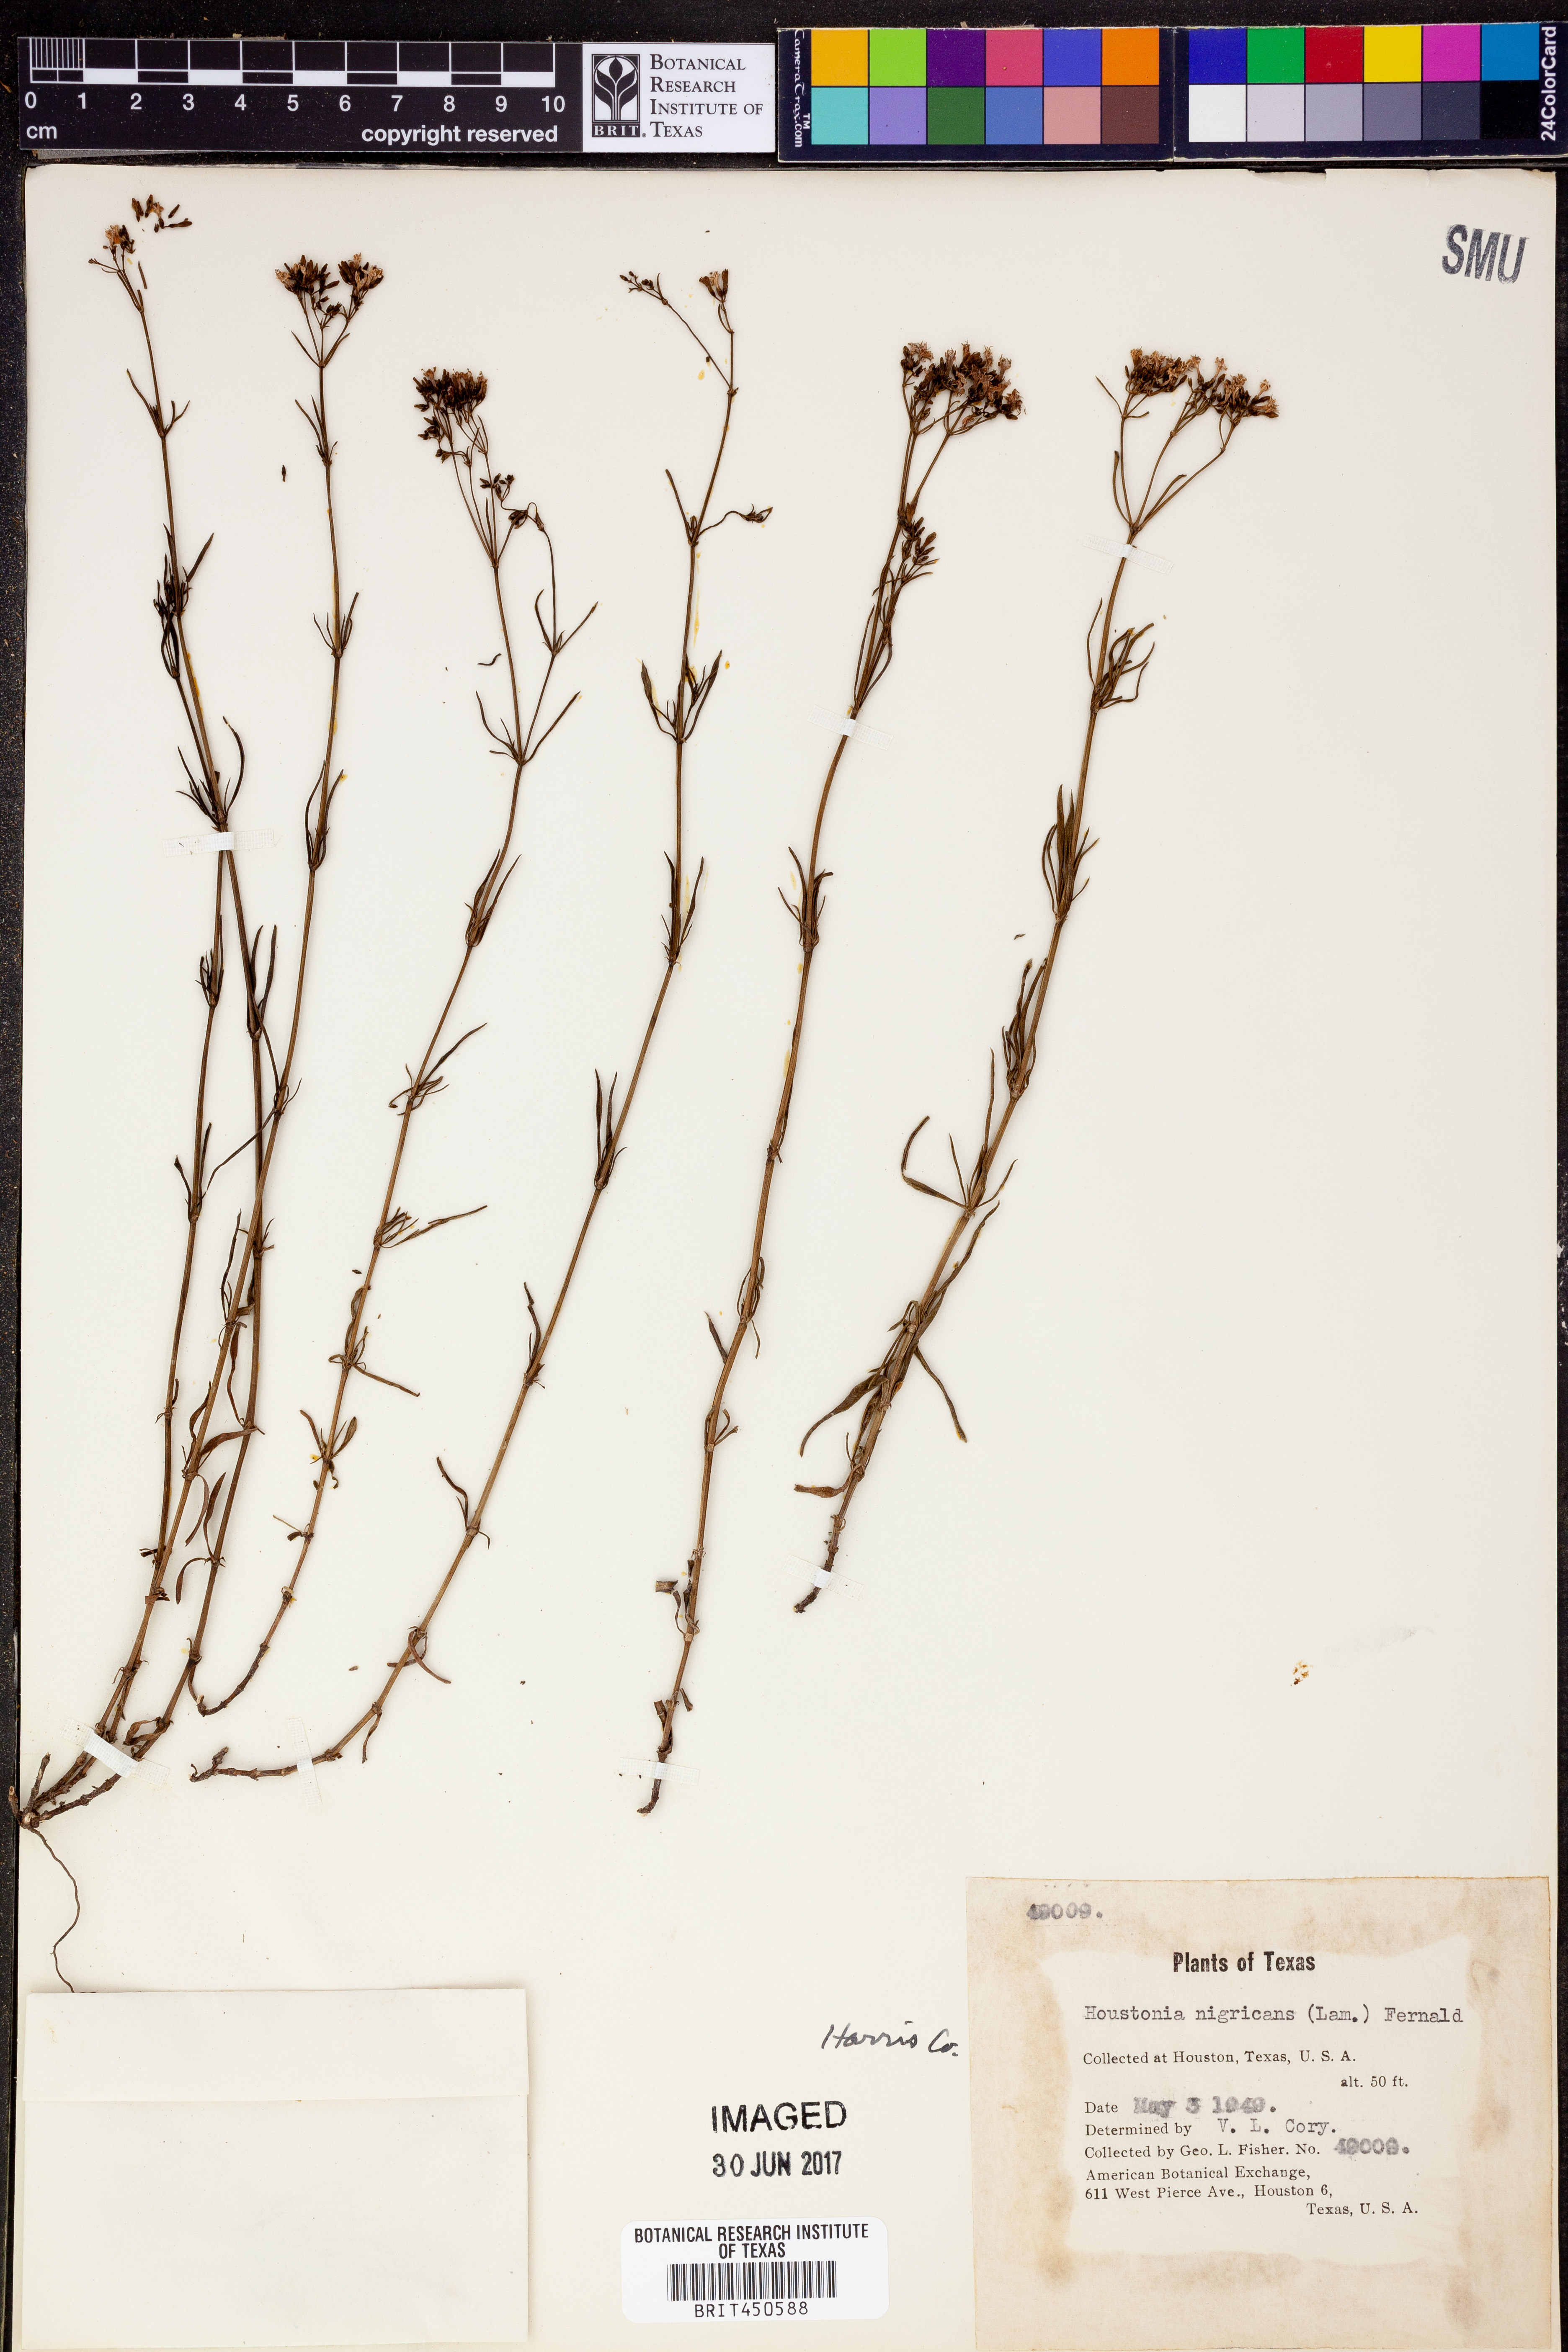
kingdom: Plantae
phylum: Tracheophyta
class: Magnoliopsida
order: Gentianales
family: Rubiaceae
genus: Stenaria
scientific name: Stenaria nigricans
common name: Diamondflowers
